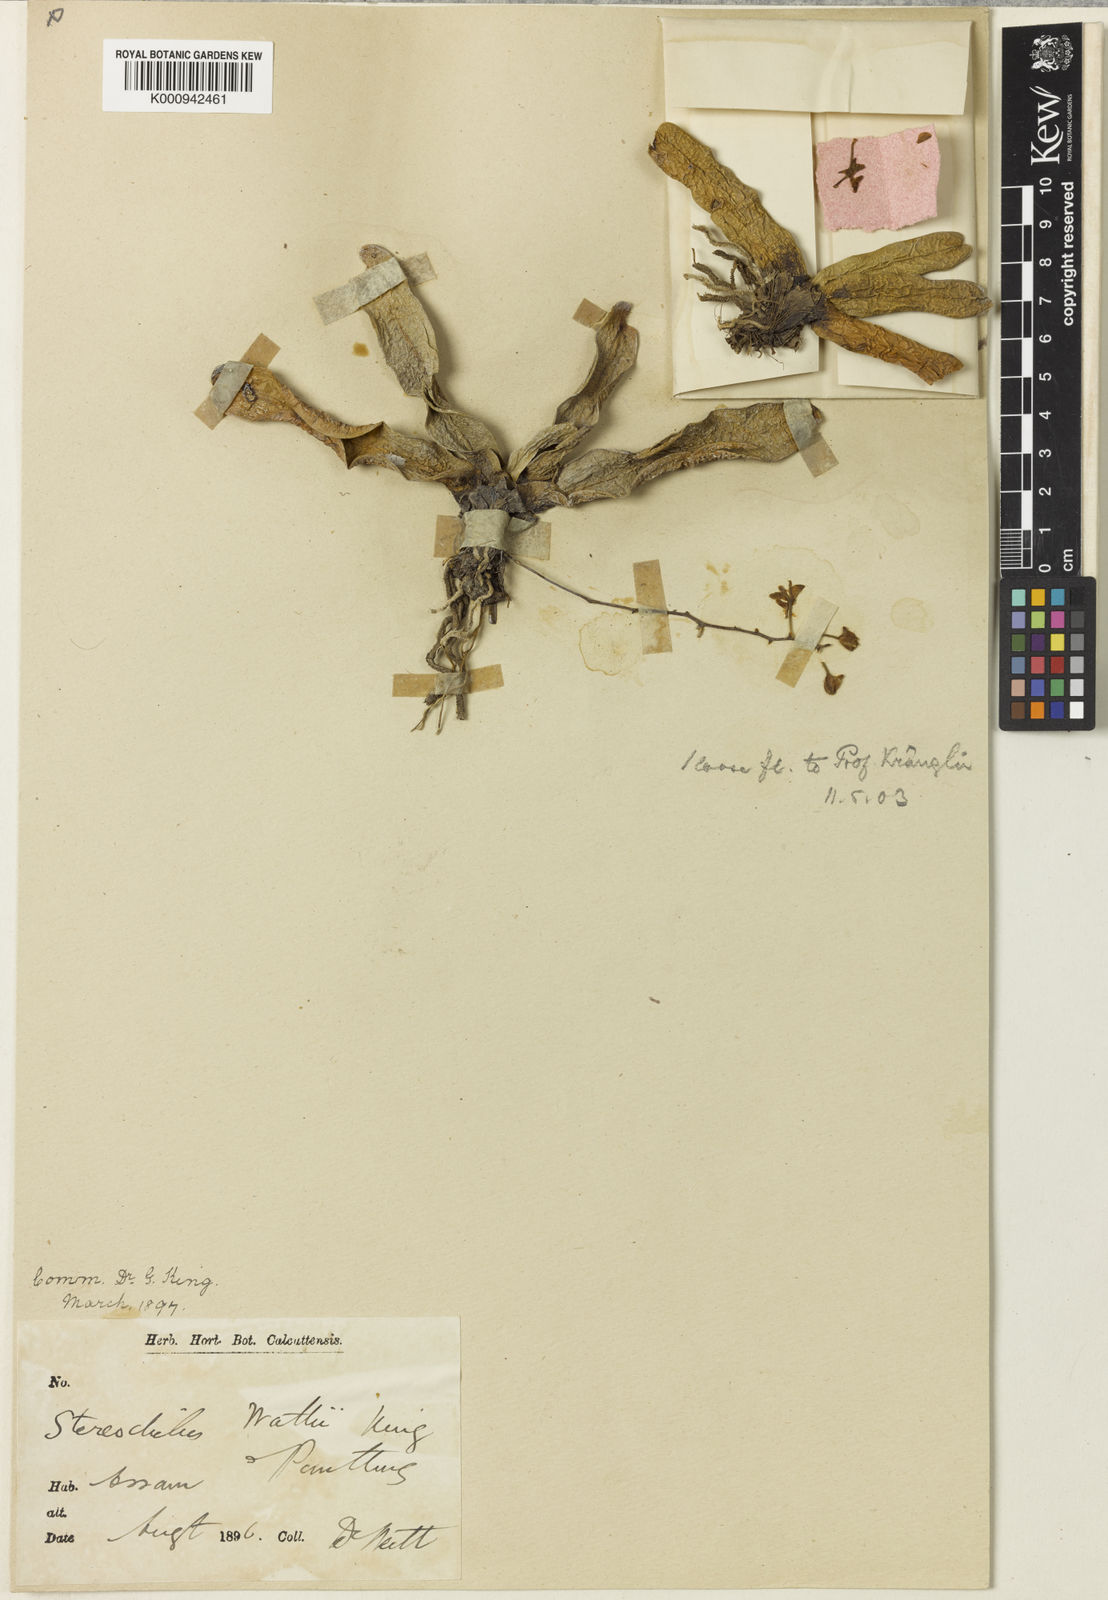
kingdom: Plantae
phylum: Tracheophyta
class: Liliopsida
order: Asparagales
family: Orchidaceae
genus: Stereochilus
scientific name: Stereochilus ringens
